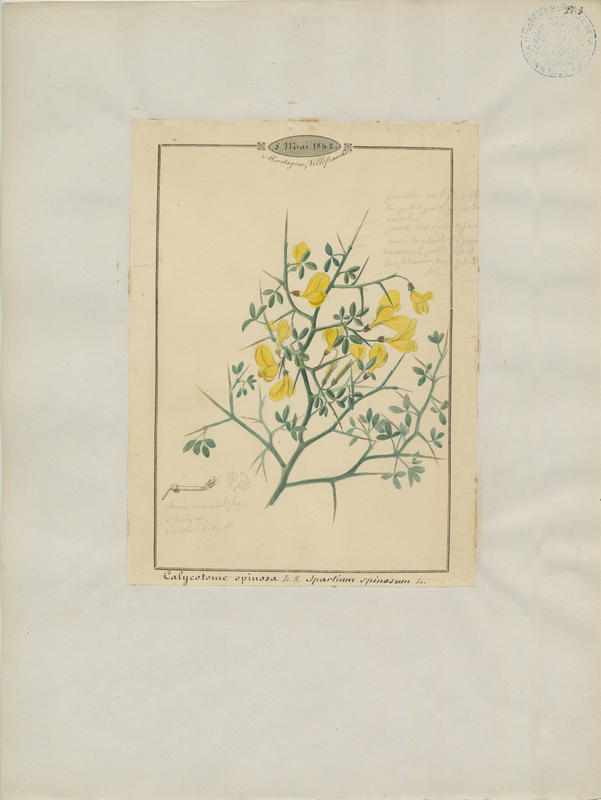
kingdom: Plantae
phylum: Tracheophyta
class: Magnoliopsida
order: Fabales
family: Fabaceae
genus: Calicotome
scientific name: Calicotome spinosa
